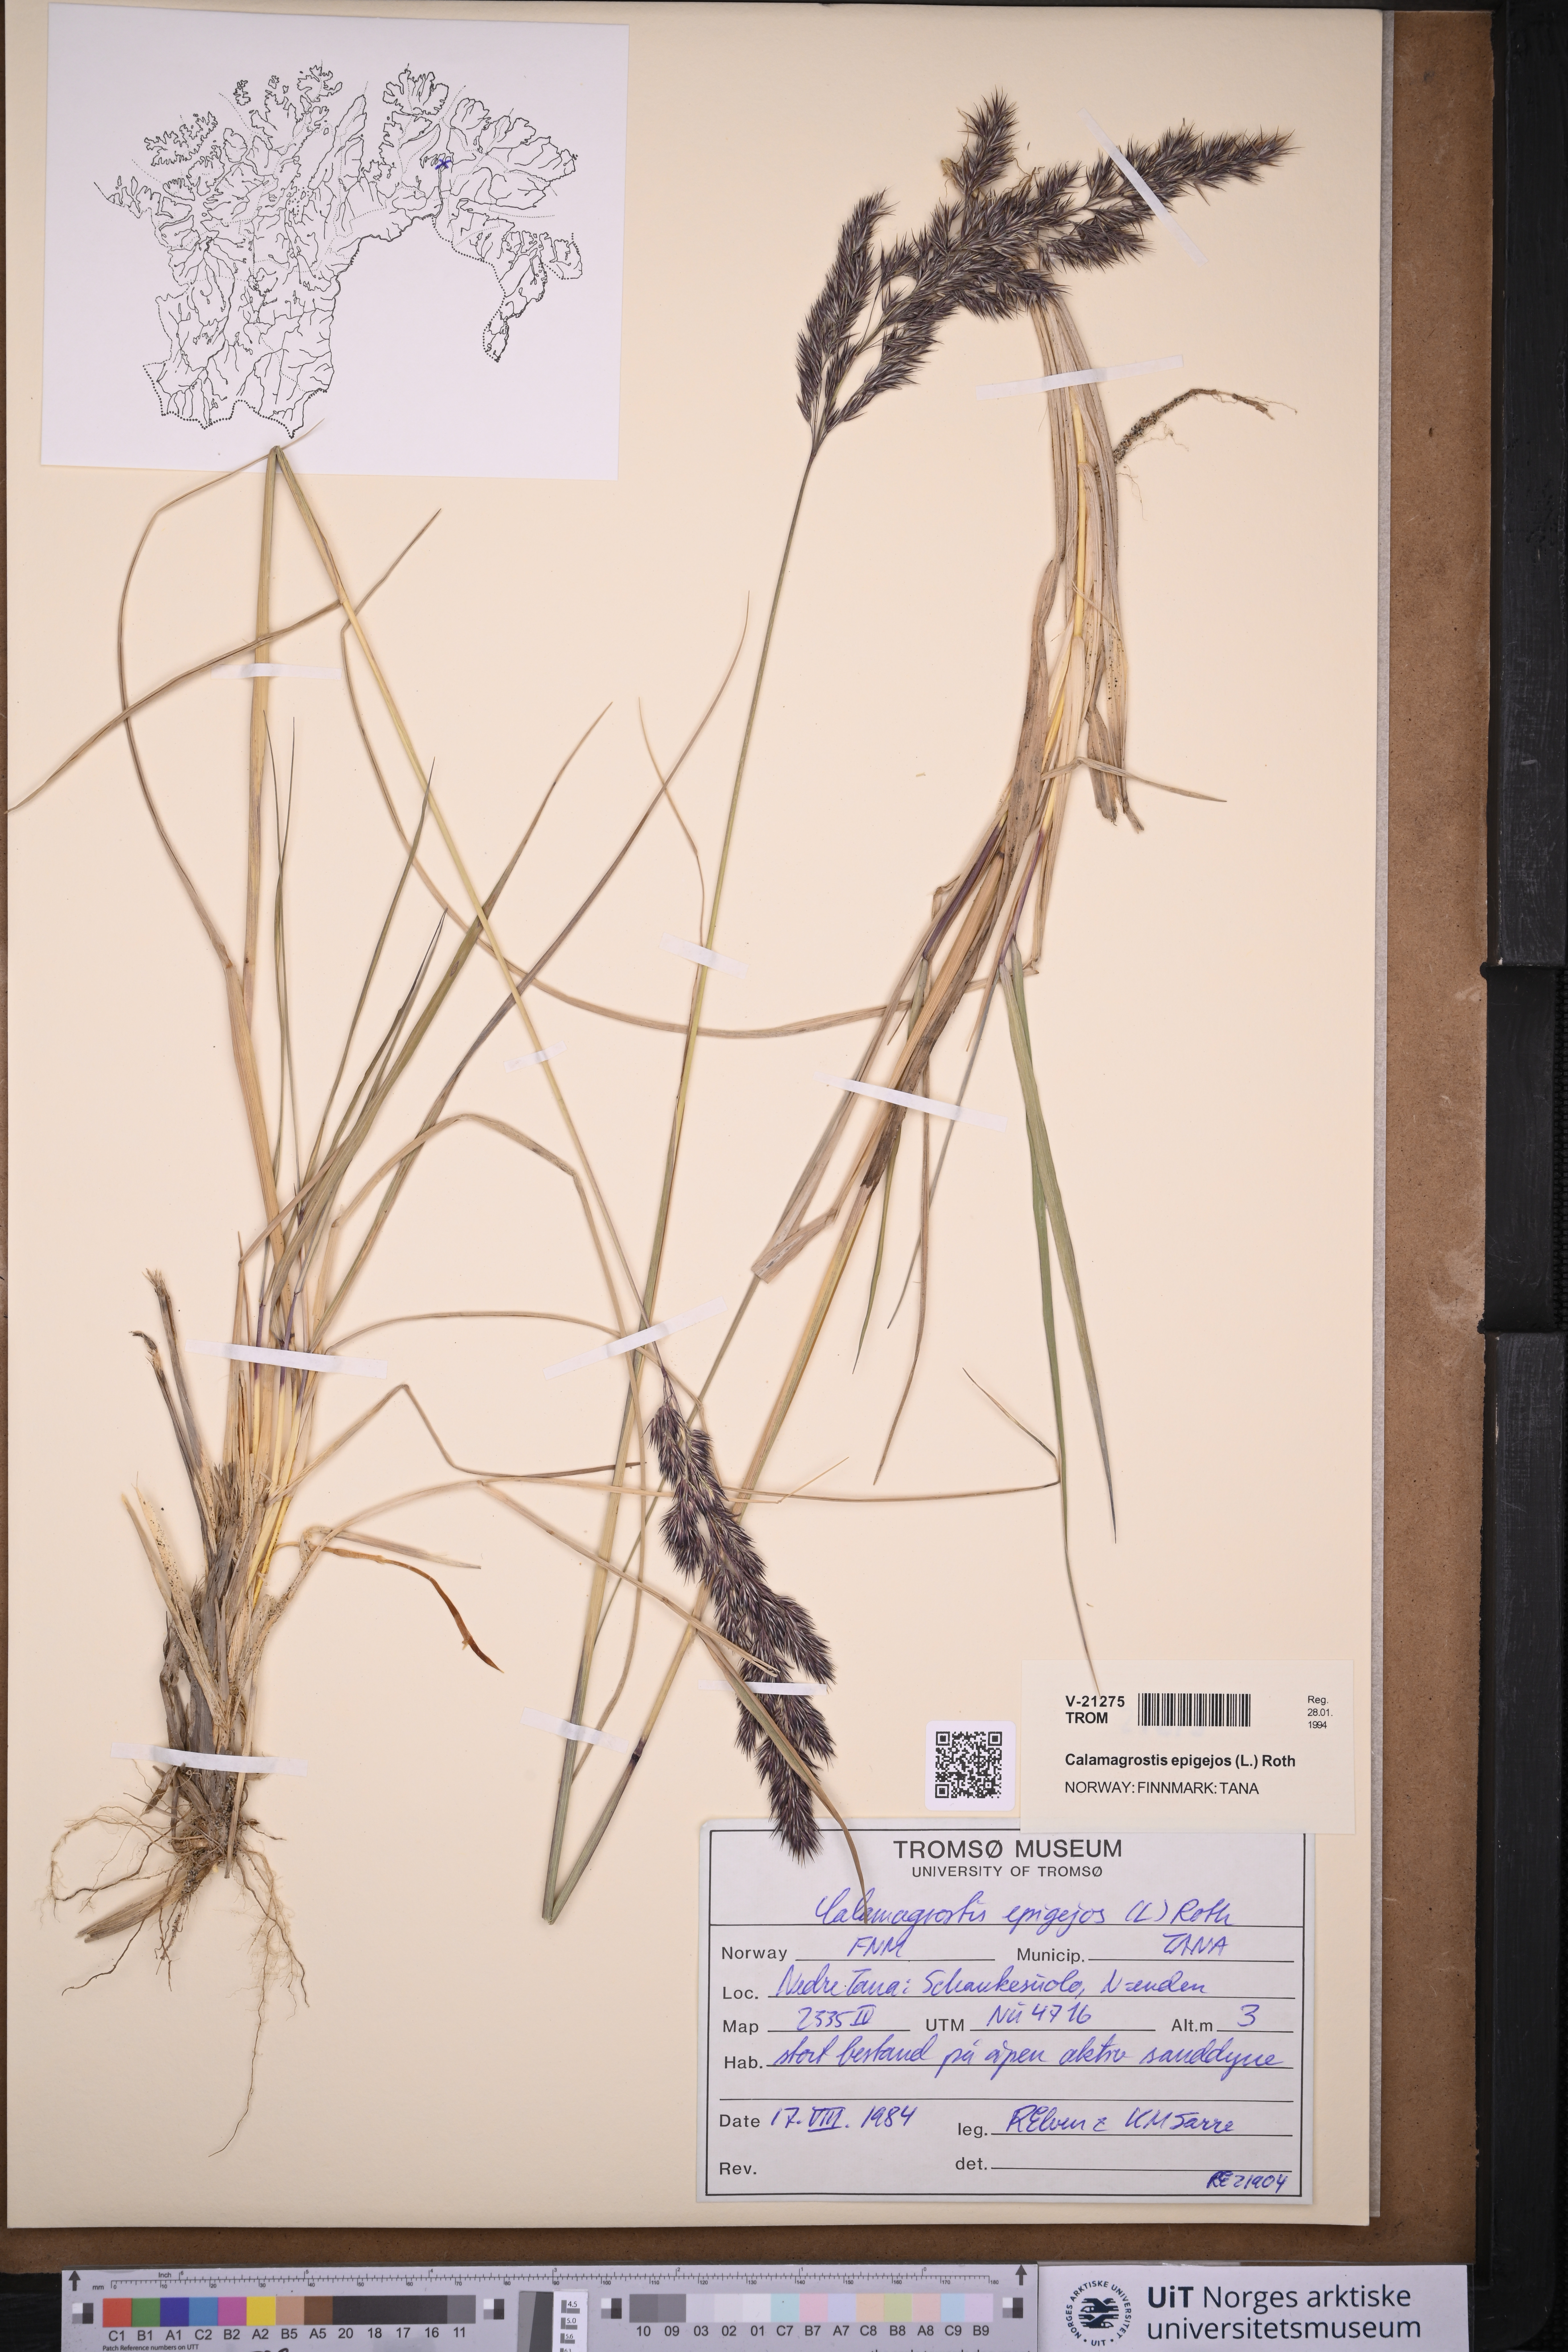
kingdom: Plantae
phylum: Tracheophyta
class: Liliopsida
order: Poales
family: Poaceae
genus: Calamagrostis
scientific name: Calamagrostis epigejos
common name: Wood small-reed
